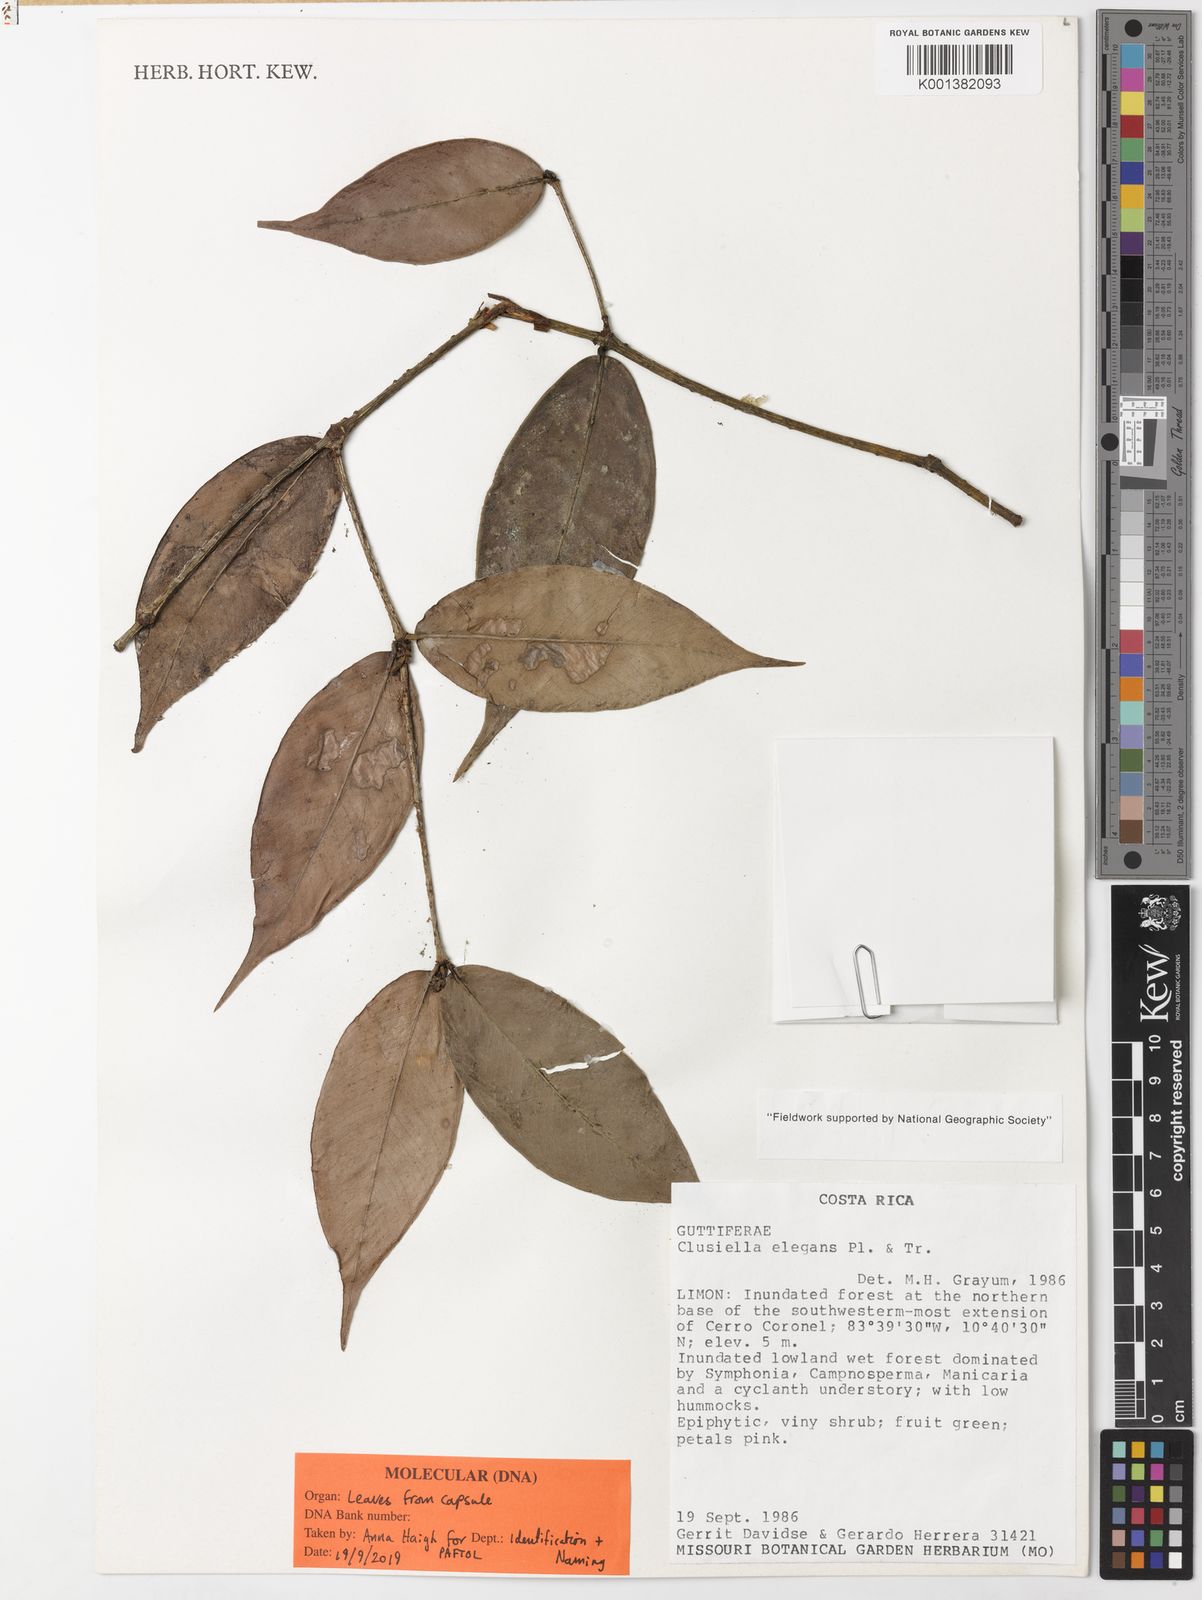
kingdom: Plantae
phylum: Tracheophyta
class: Magnoliopsida
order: Malpighiales
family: Calophyllaceae
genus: Clusiella
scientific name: Clusiella elegans
